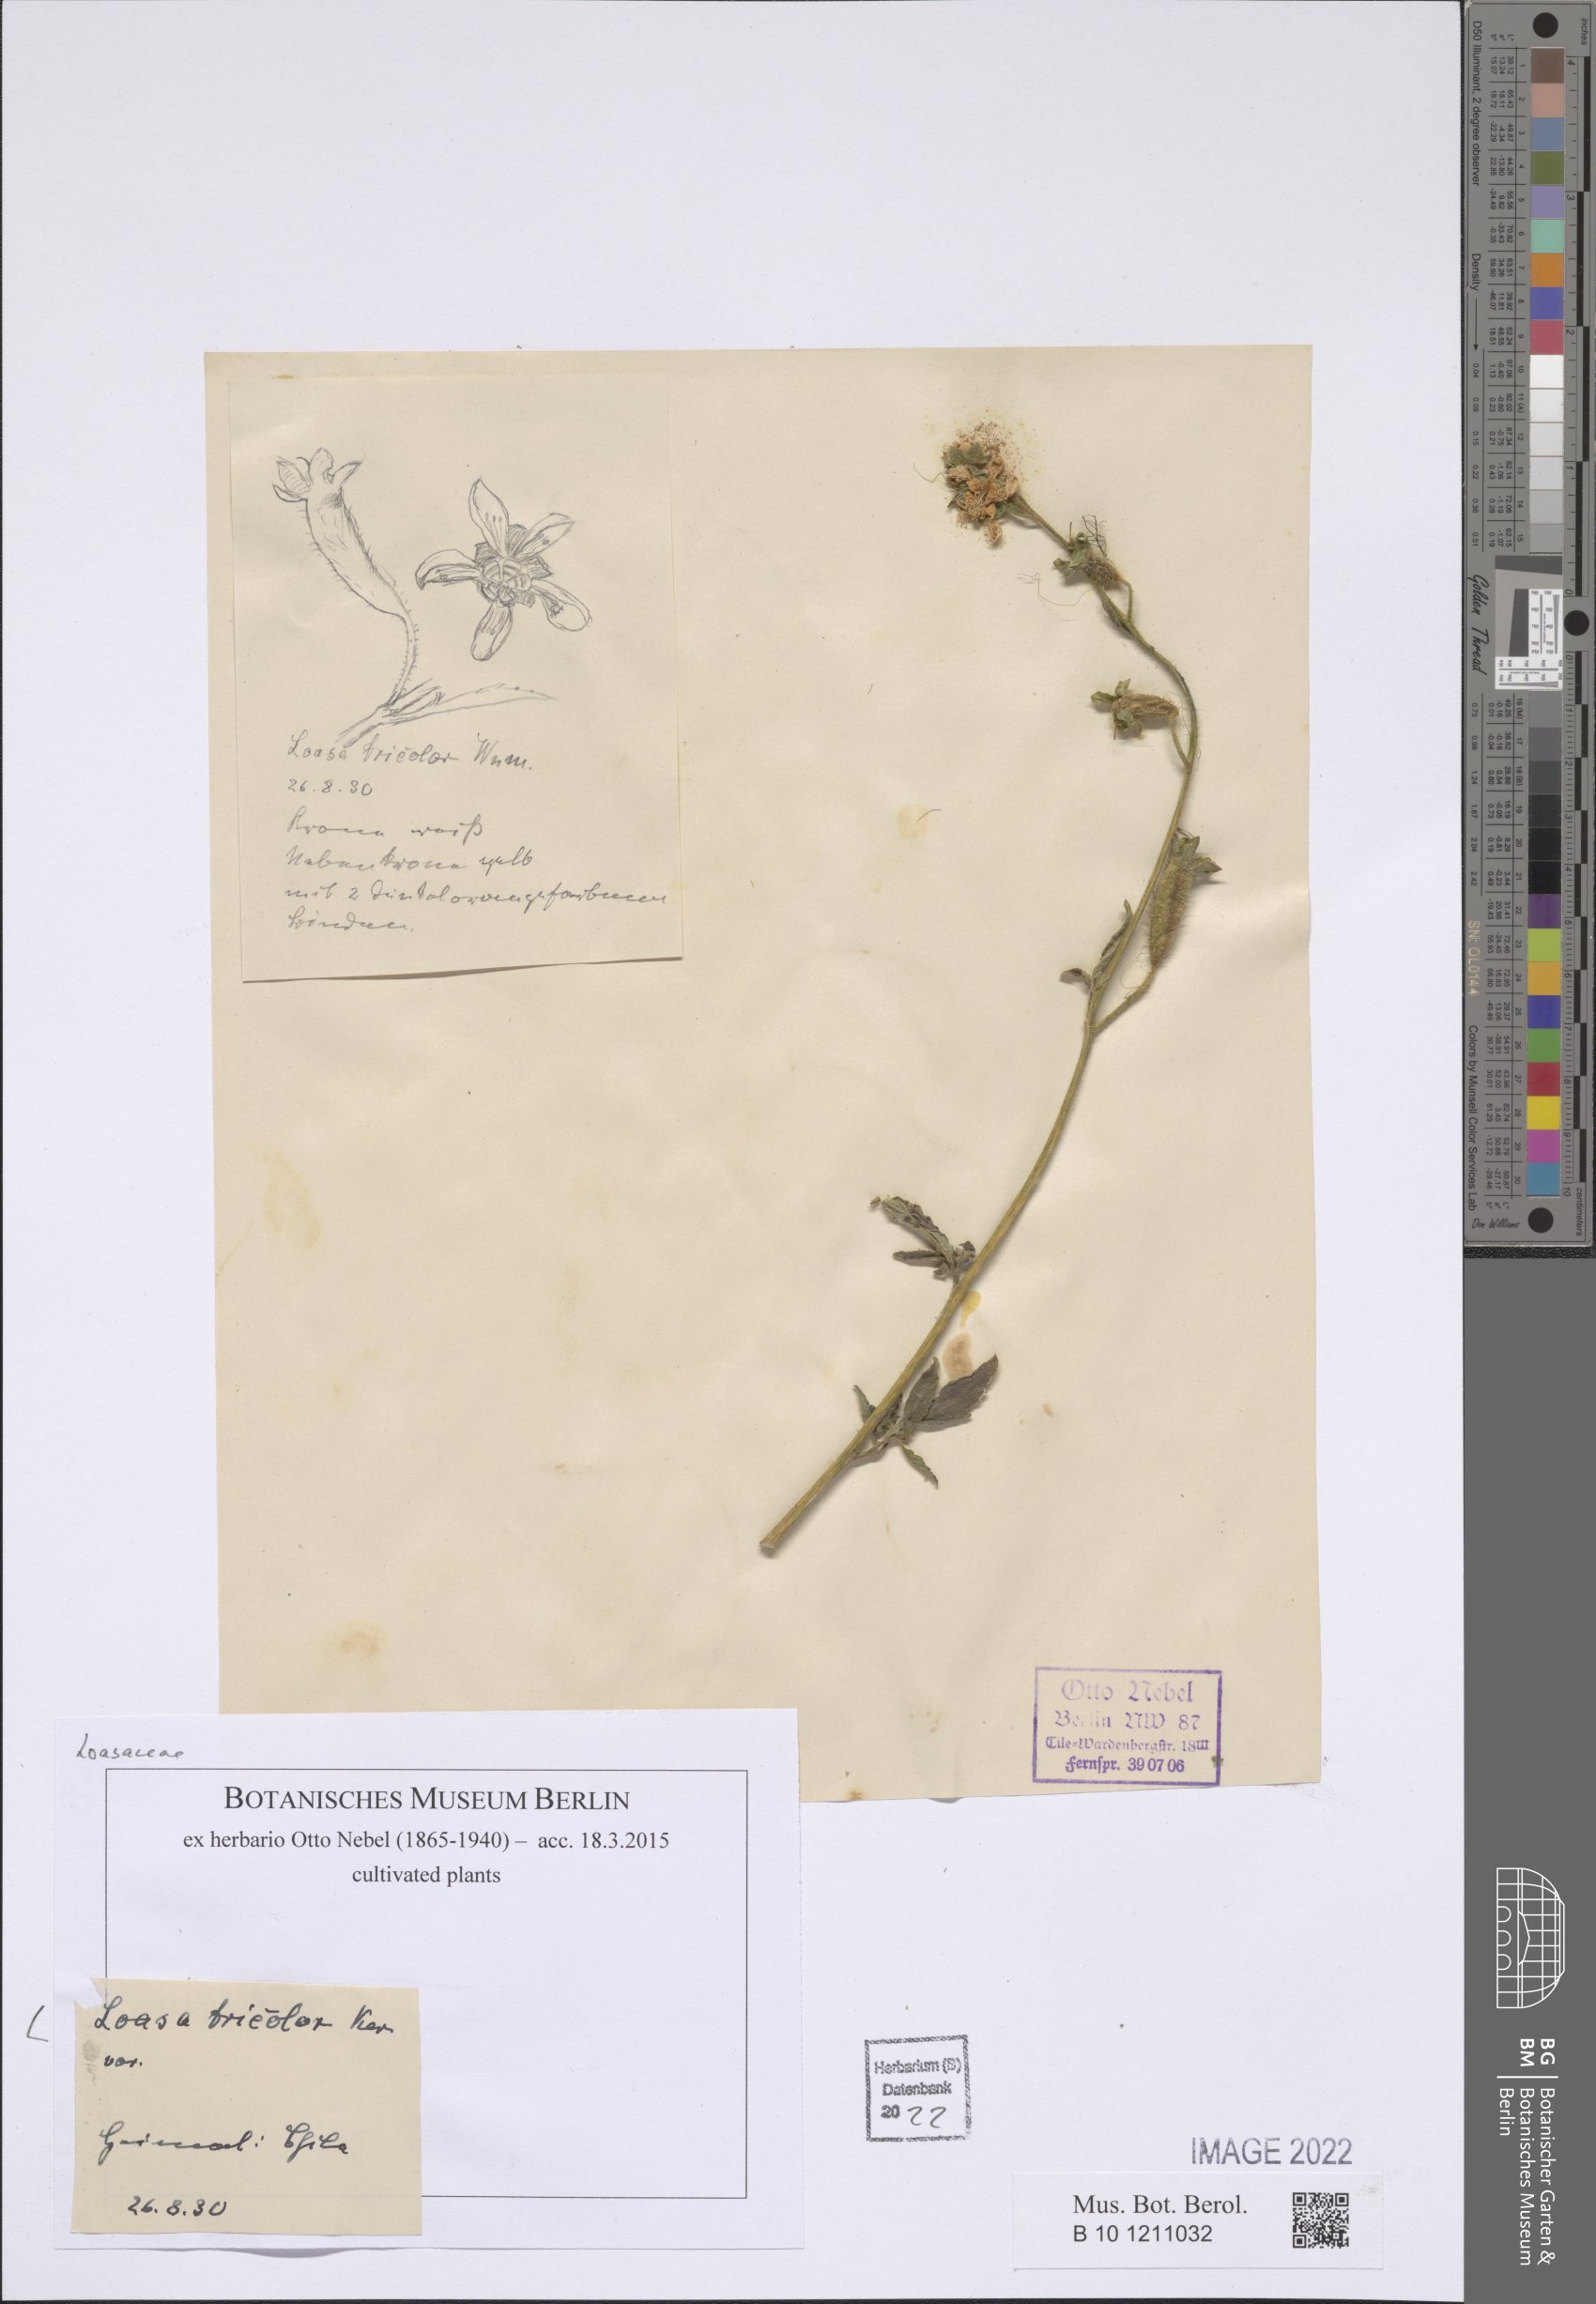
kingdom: Plantae
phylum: Tracheophyta
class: Magnoliopsida
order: Cornales
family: Loasaceae
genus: Loasa
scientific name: Loasa tricolor
